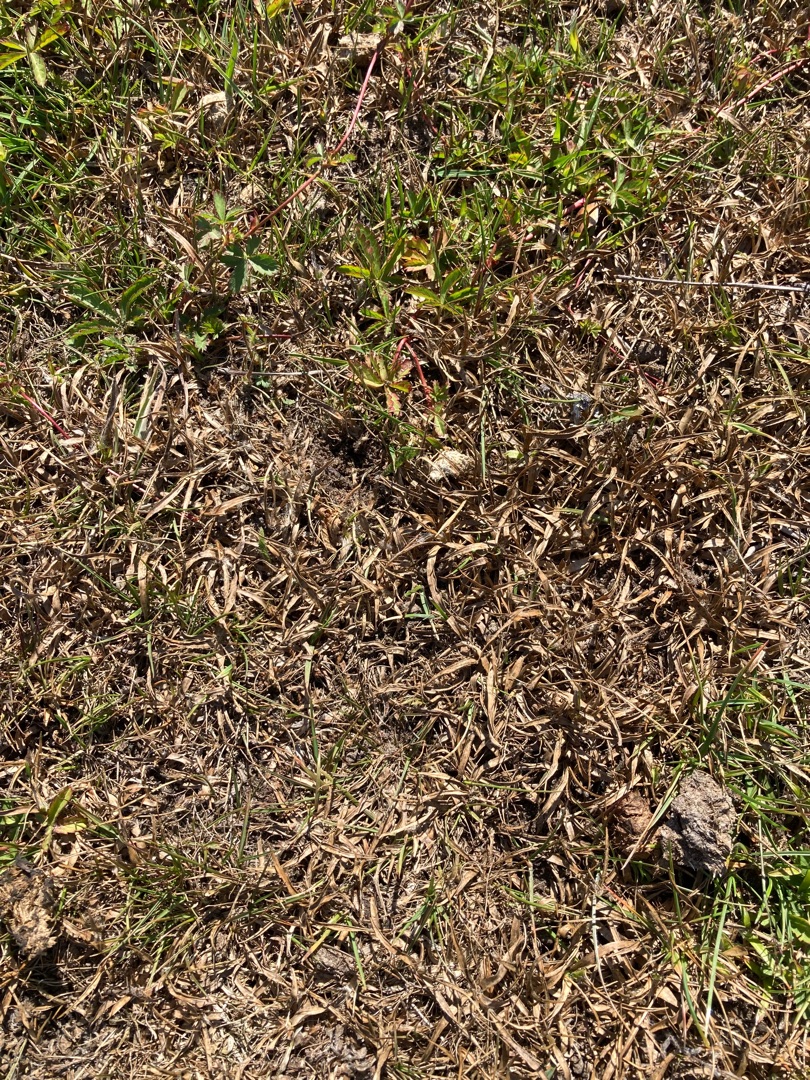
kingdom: Plantae
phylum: Tracheophyta
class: Liliopsida
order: Poales
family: Juncaceae
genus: Luzula
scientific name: Luzula campestris
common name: Mark-frytle
